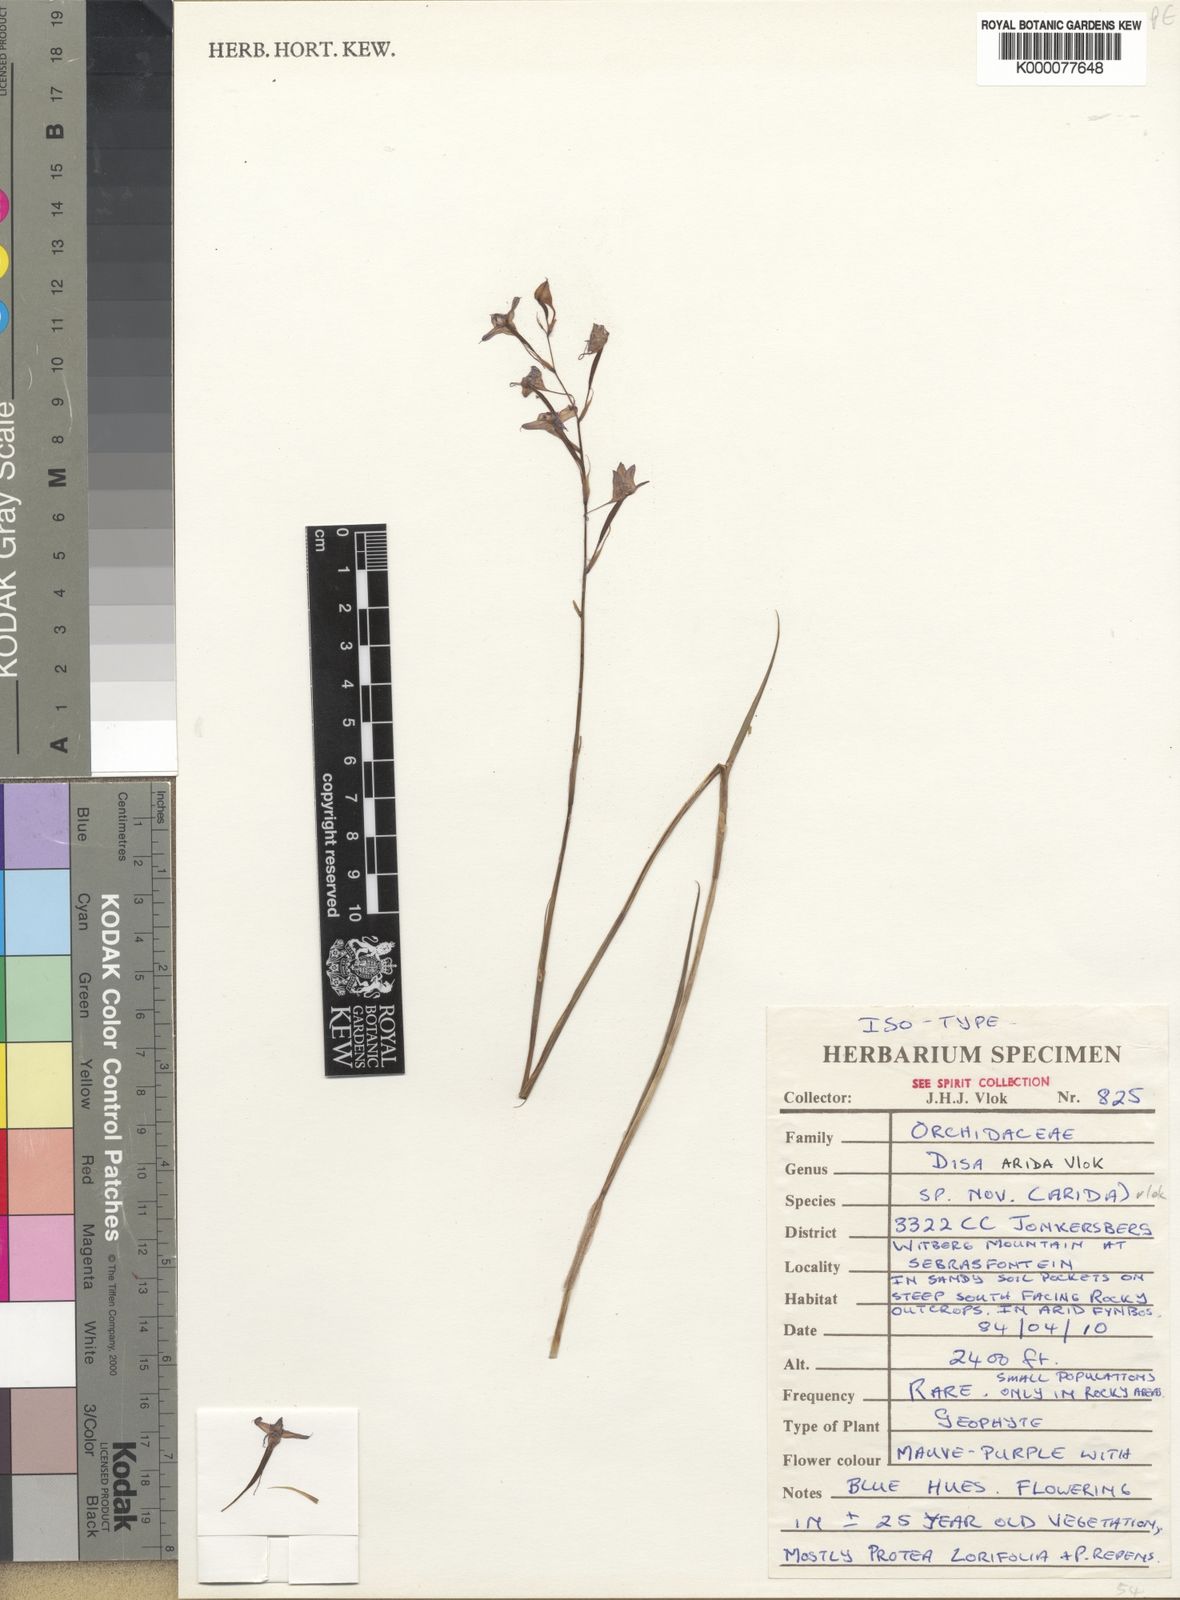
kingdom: Plantae
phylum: Tracheophyta
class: Liliopsida
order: Asparagales
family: Orchidaceae
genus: Disa
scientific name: Disa arida
